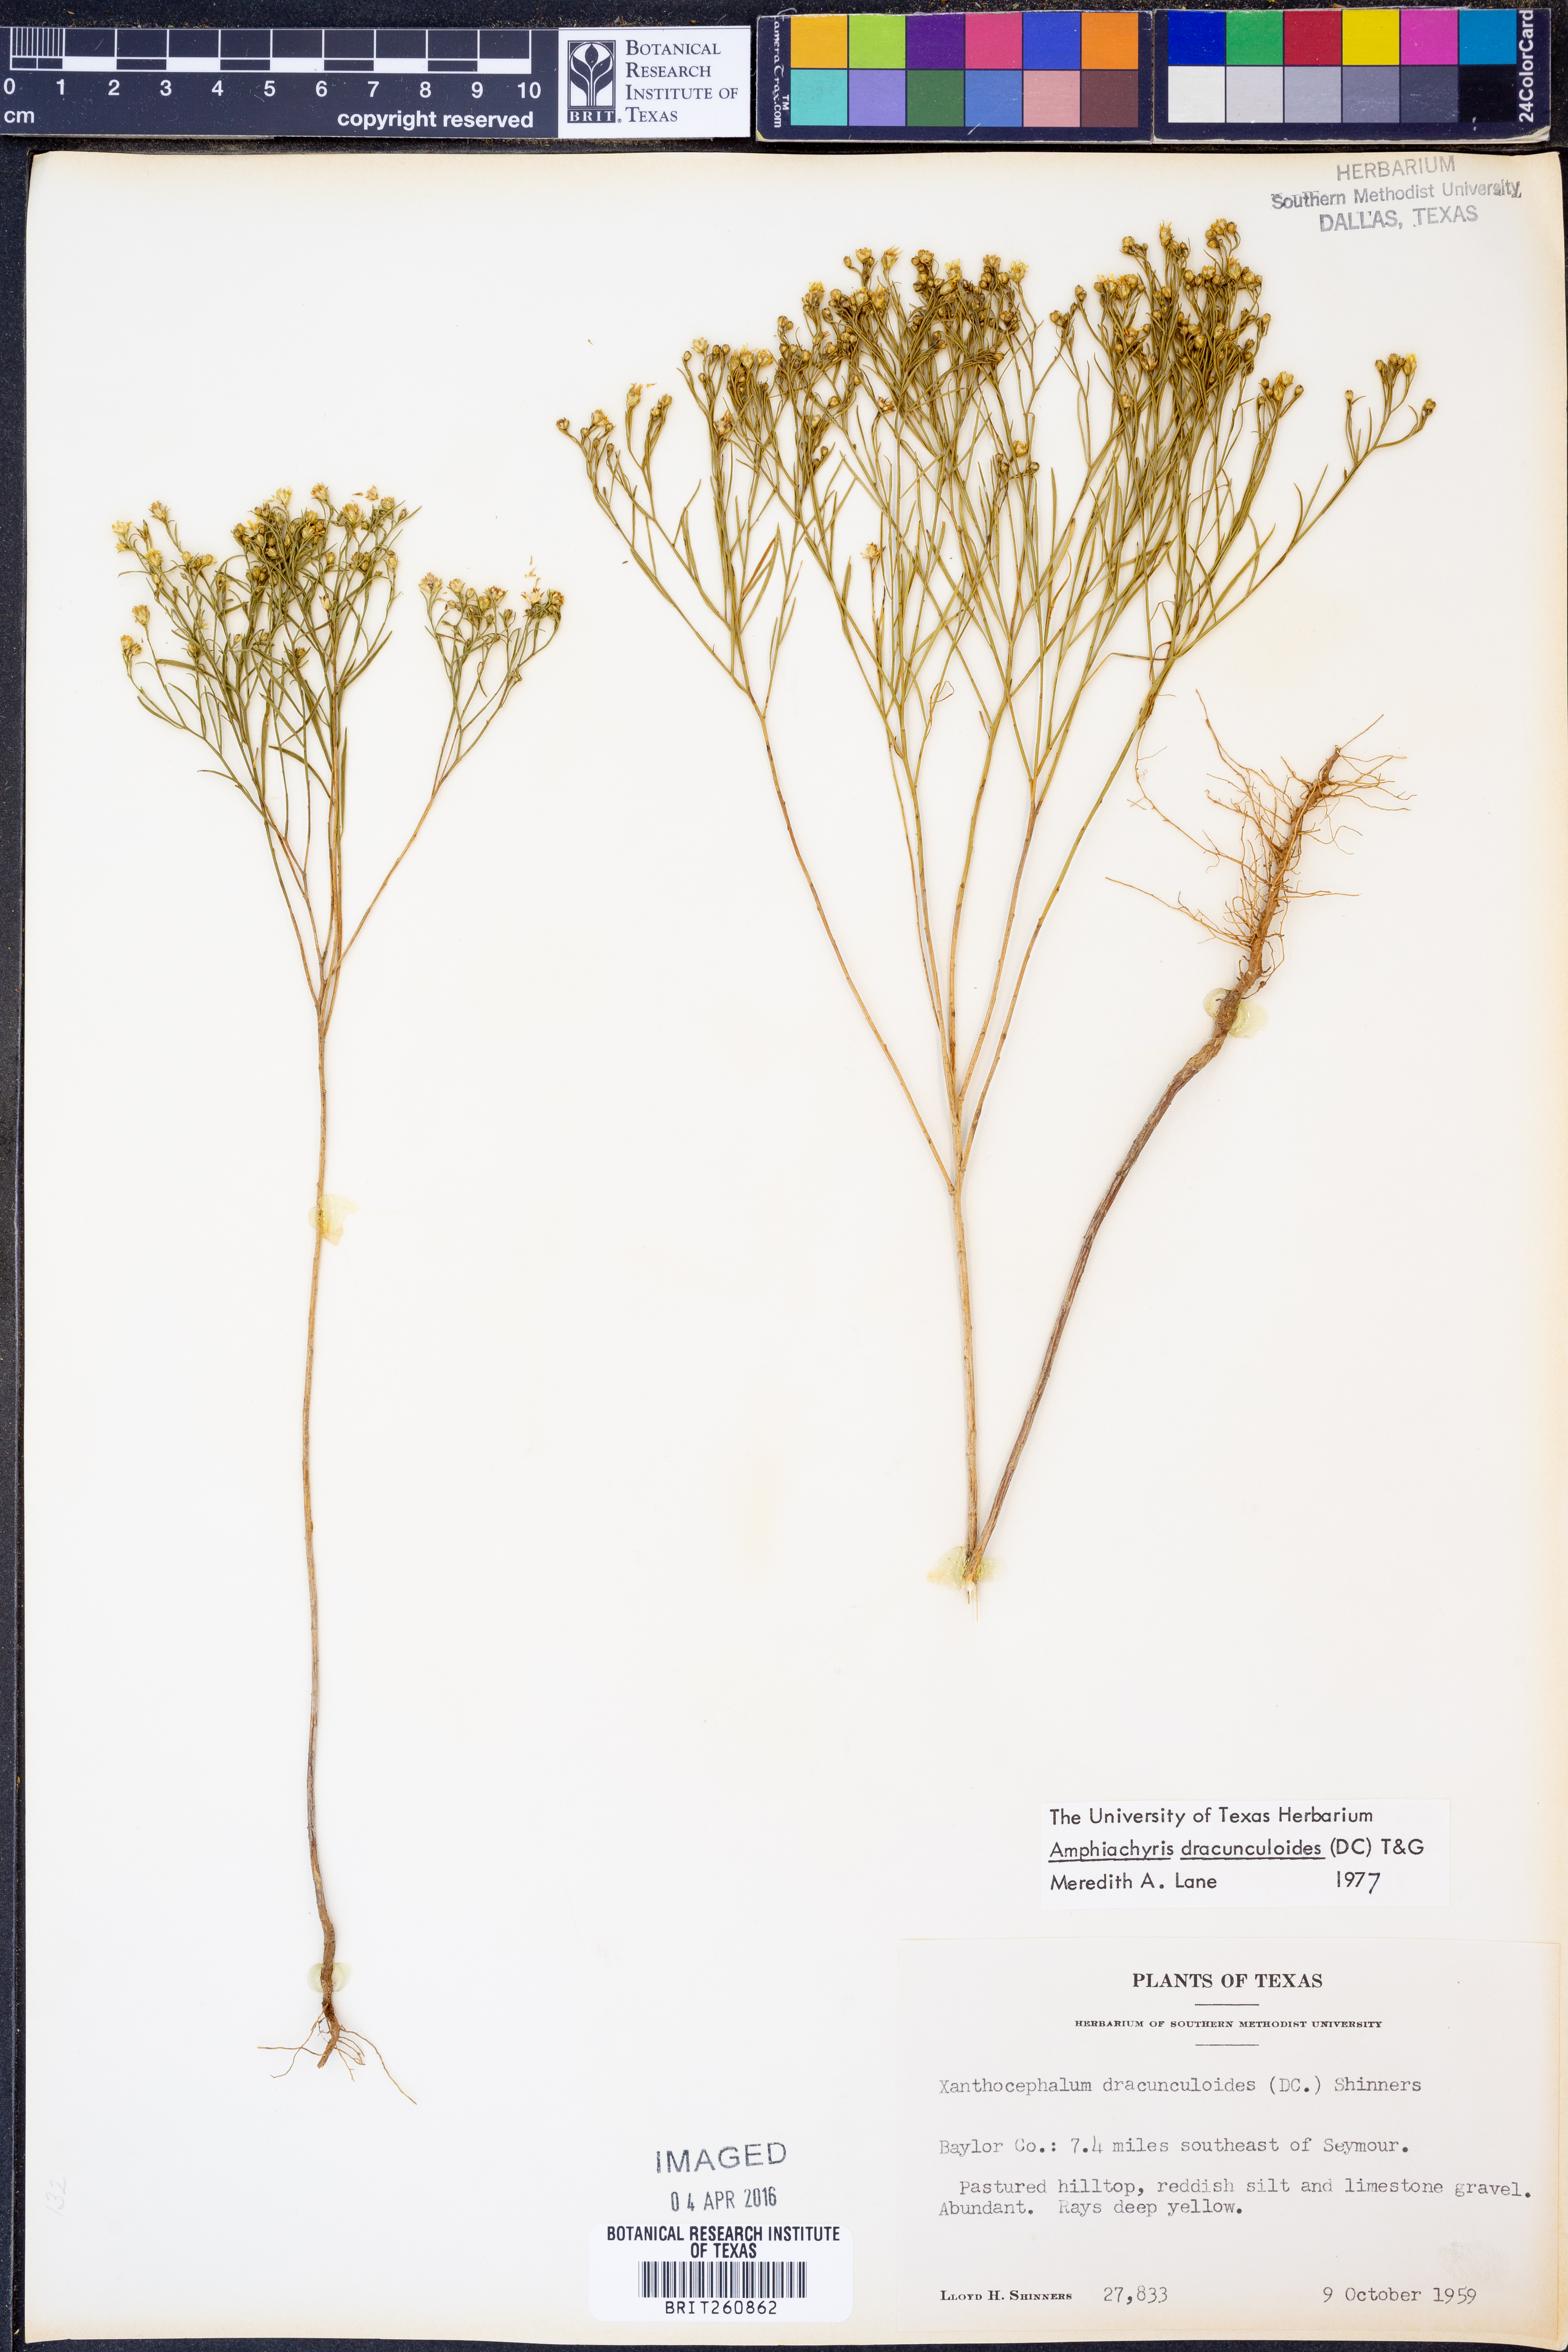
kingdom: Plantae
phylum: Tracheophyta
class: Magnoliopsida
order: Asterales
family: Asteraceae
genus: Amphiachyris
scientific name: Amphiachyris dracunculoides
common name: Broomweed
